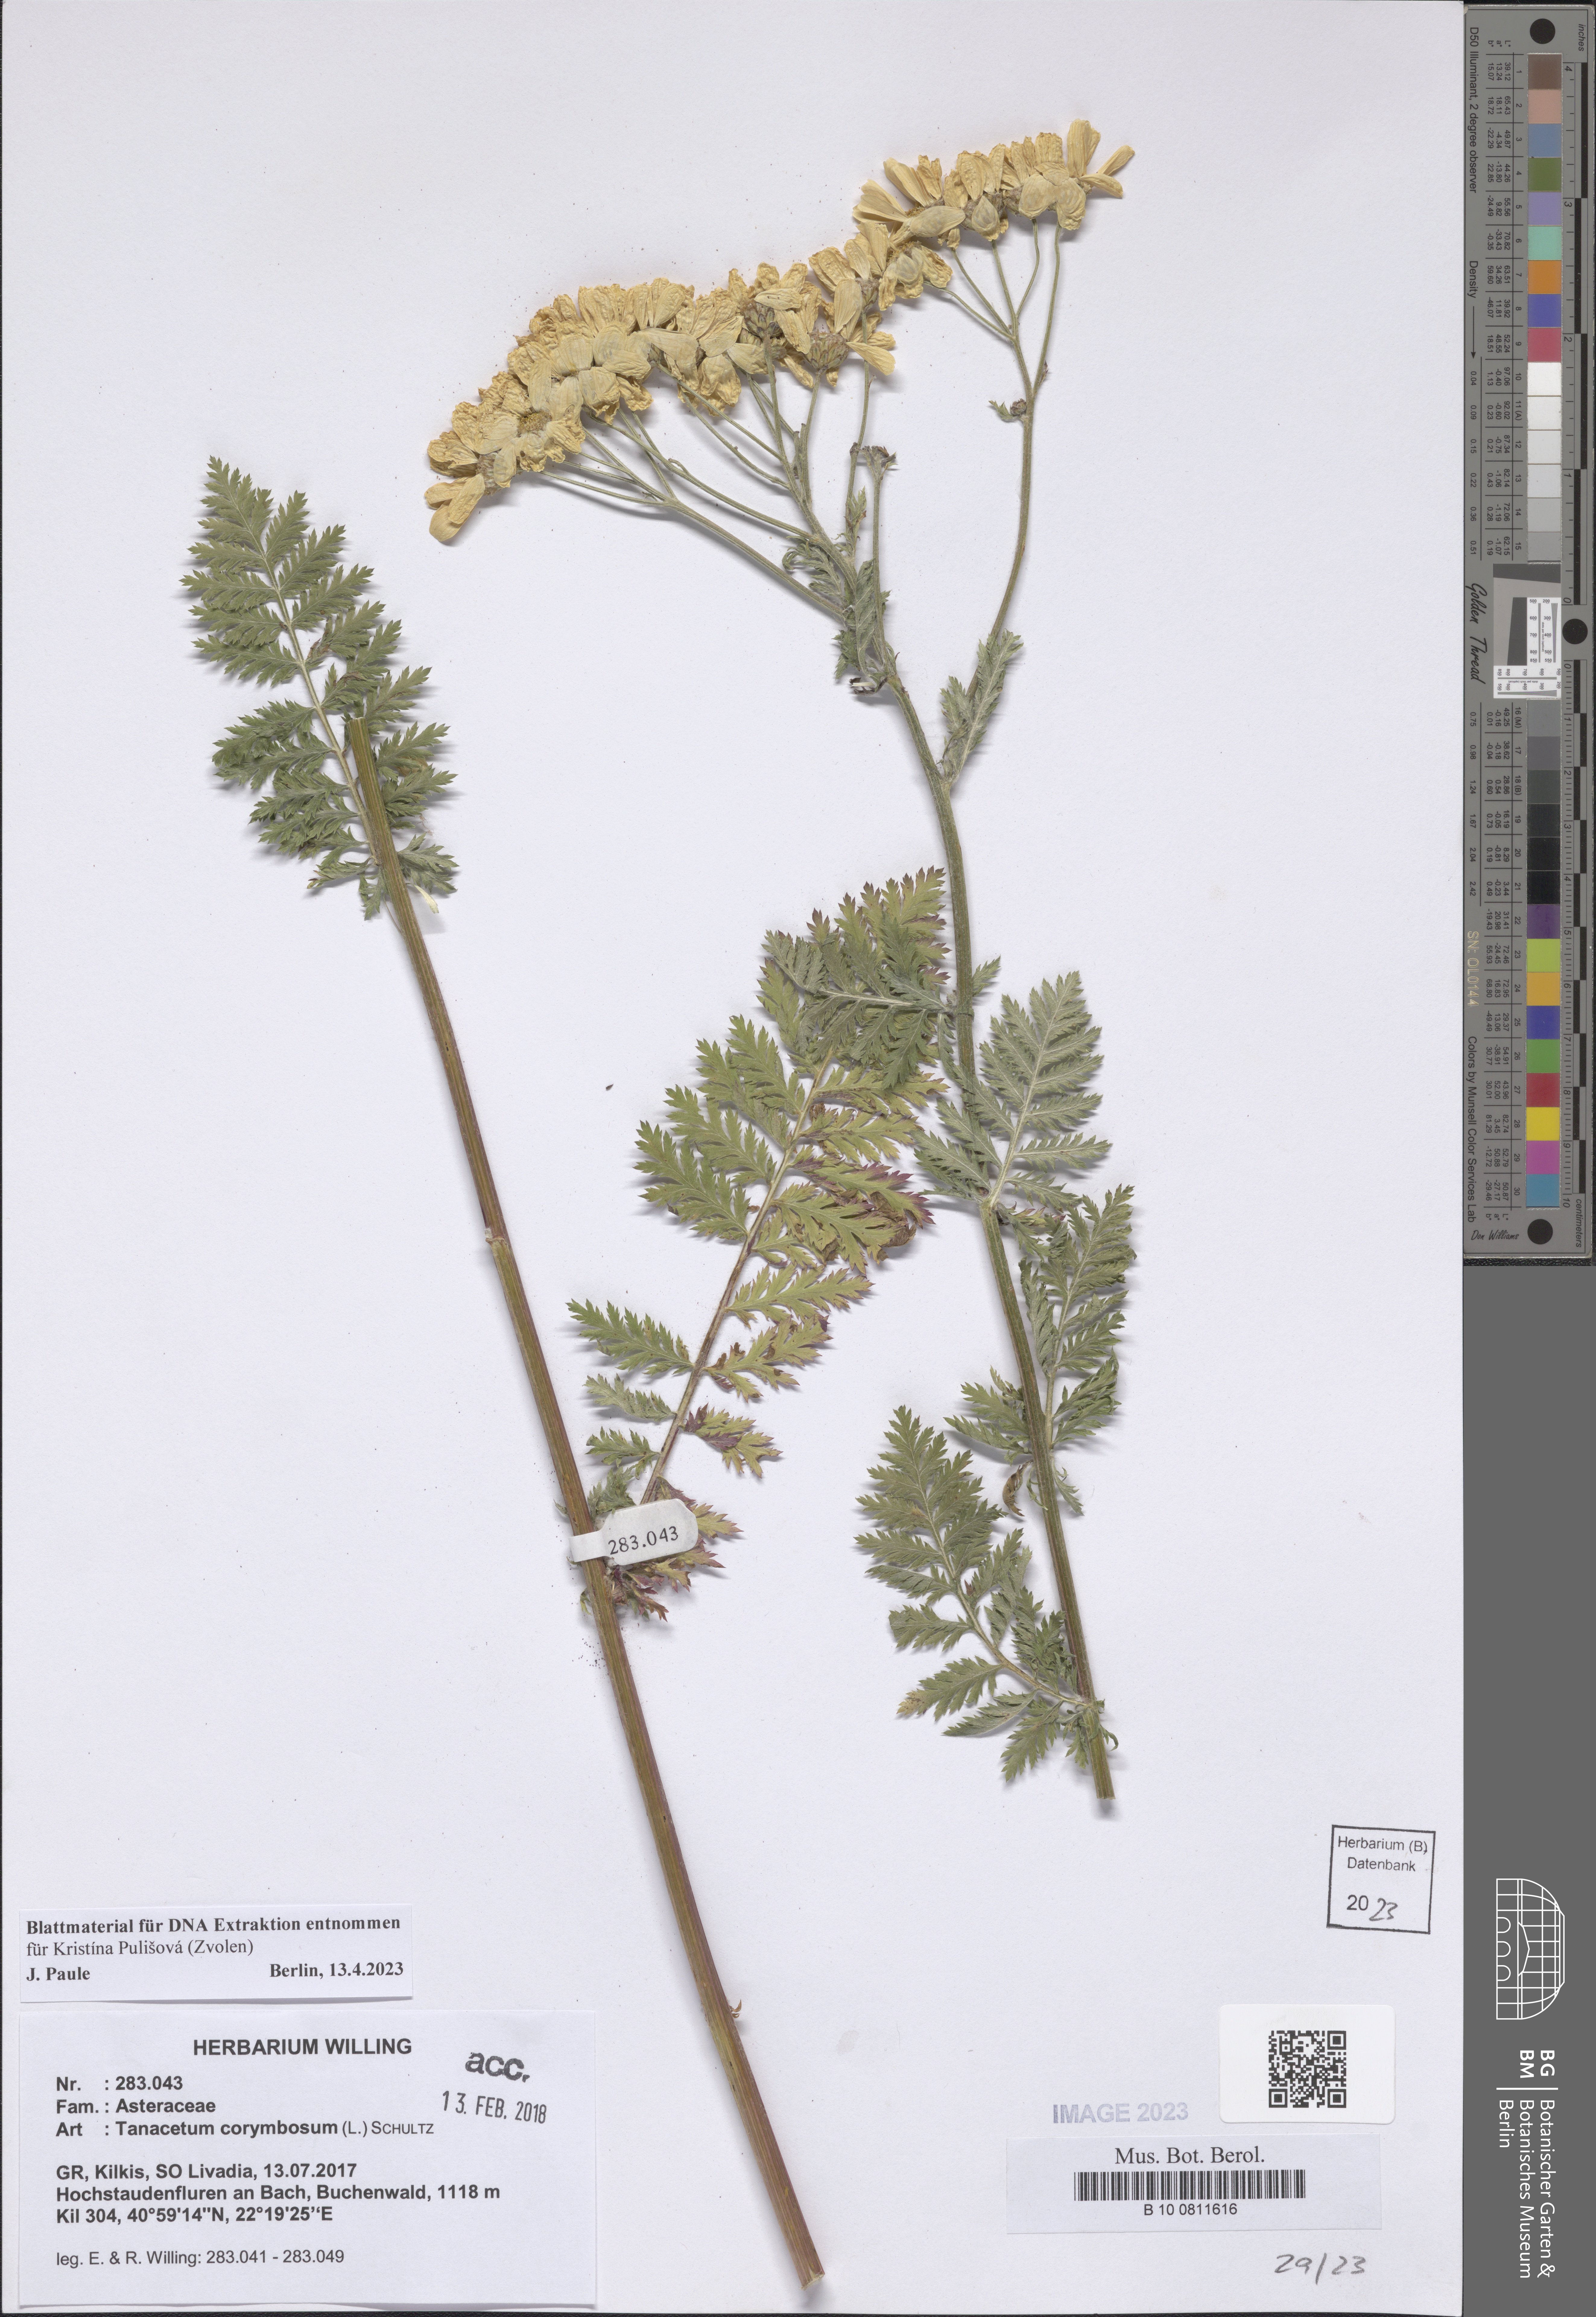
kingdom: Plantae
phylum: Tracheophyta
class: Magnoliopsida
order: Asterales
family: Asteraceae
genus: Tanacetum
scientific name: Tanacetum corymbosum
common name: Scentless feverfew
